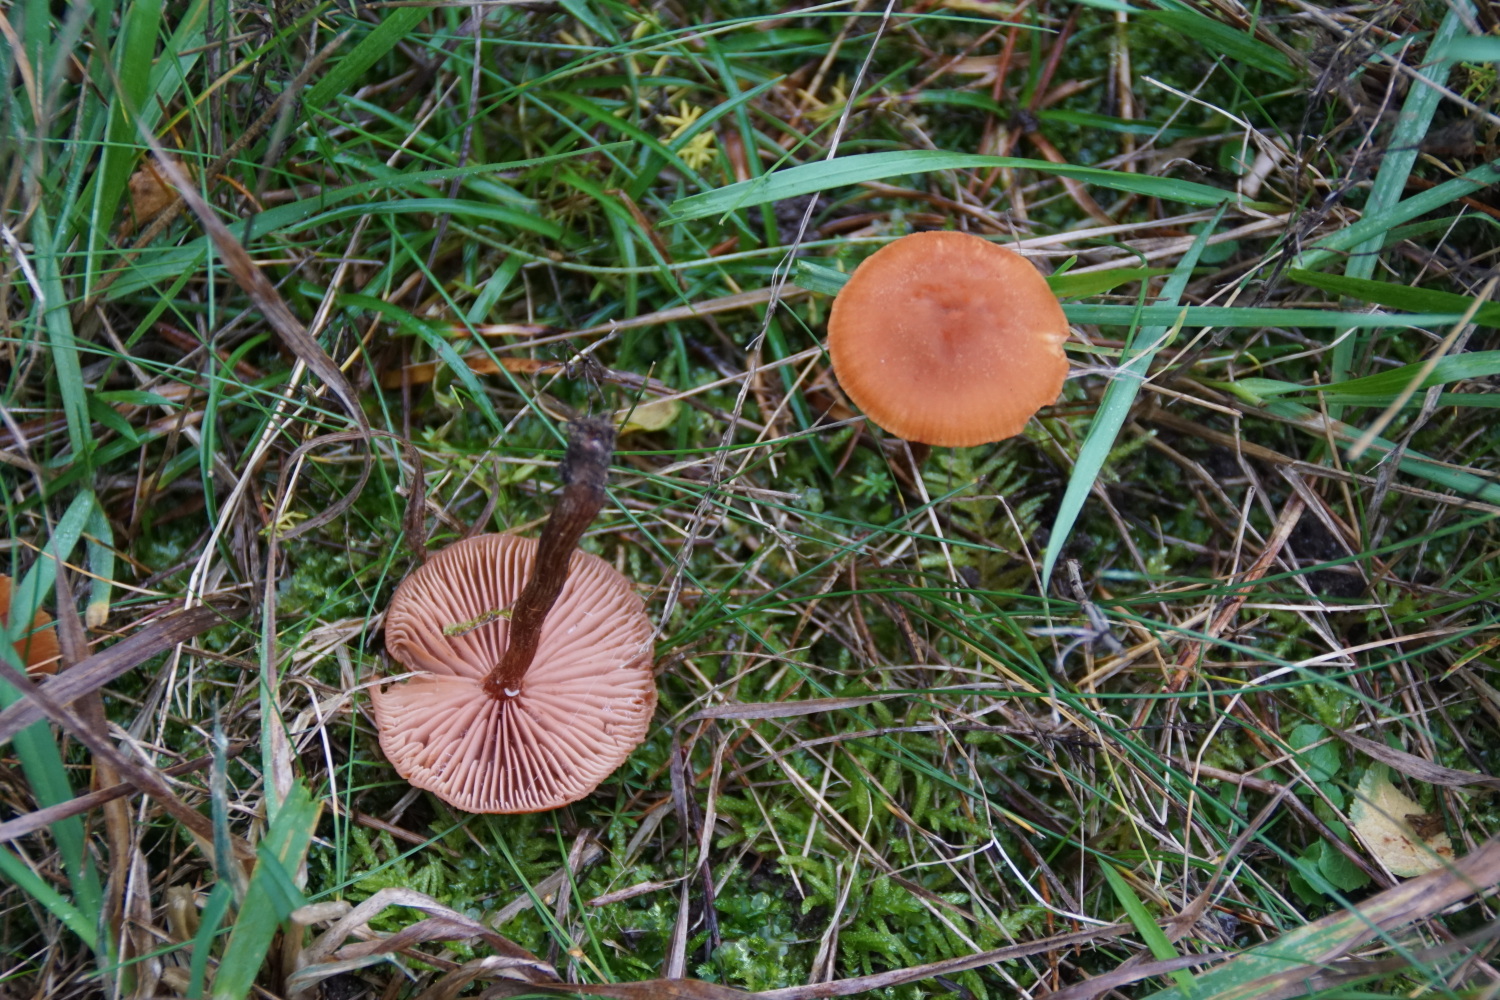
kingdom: Fungi
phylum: Basidiomycota
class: Agaricomycetes
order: Agaricales
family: Hydnangiaceae
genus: Laccaria
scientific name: Laccaria proxima
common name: stor ametysthat
